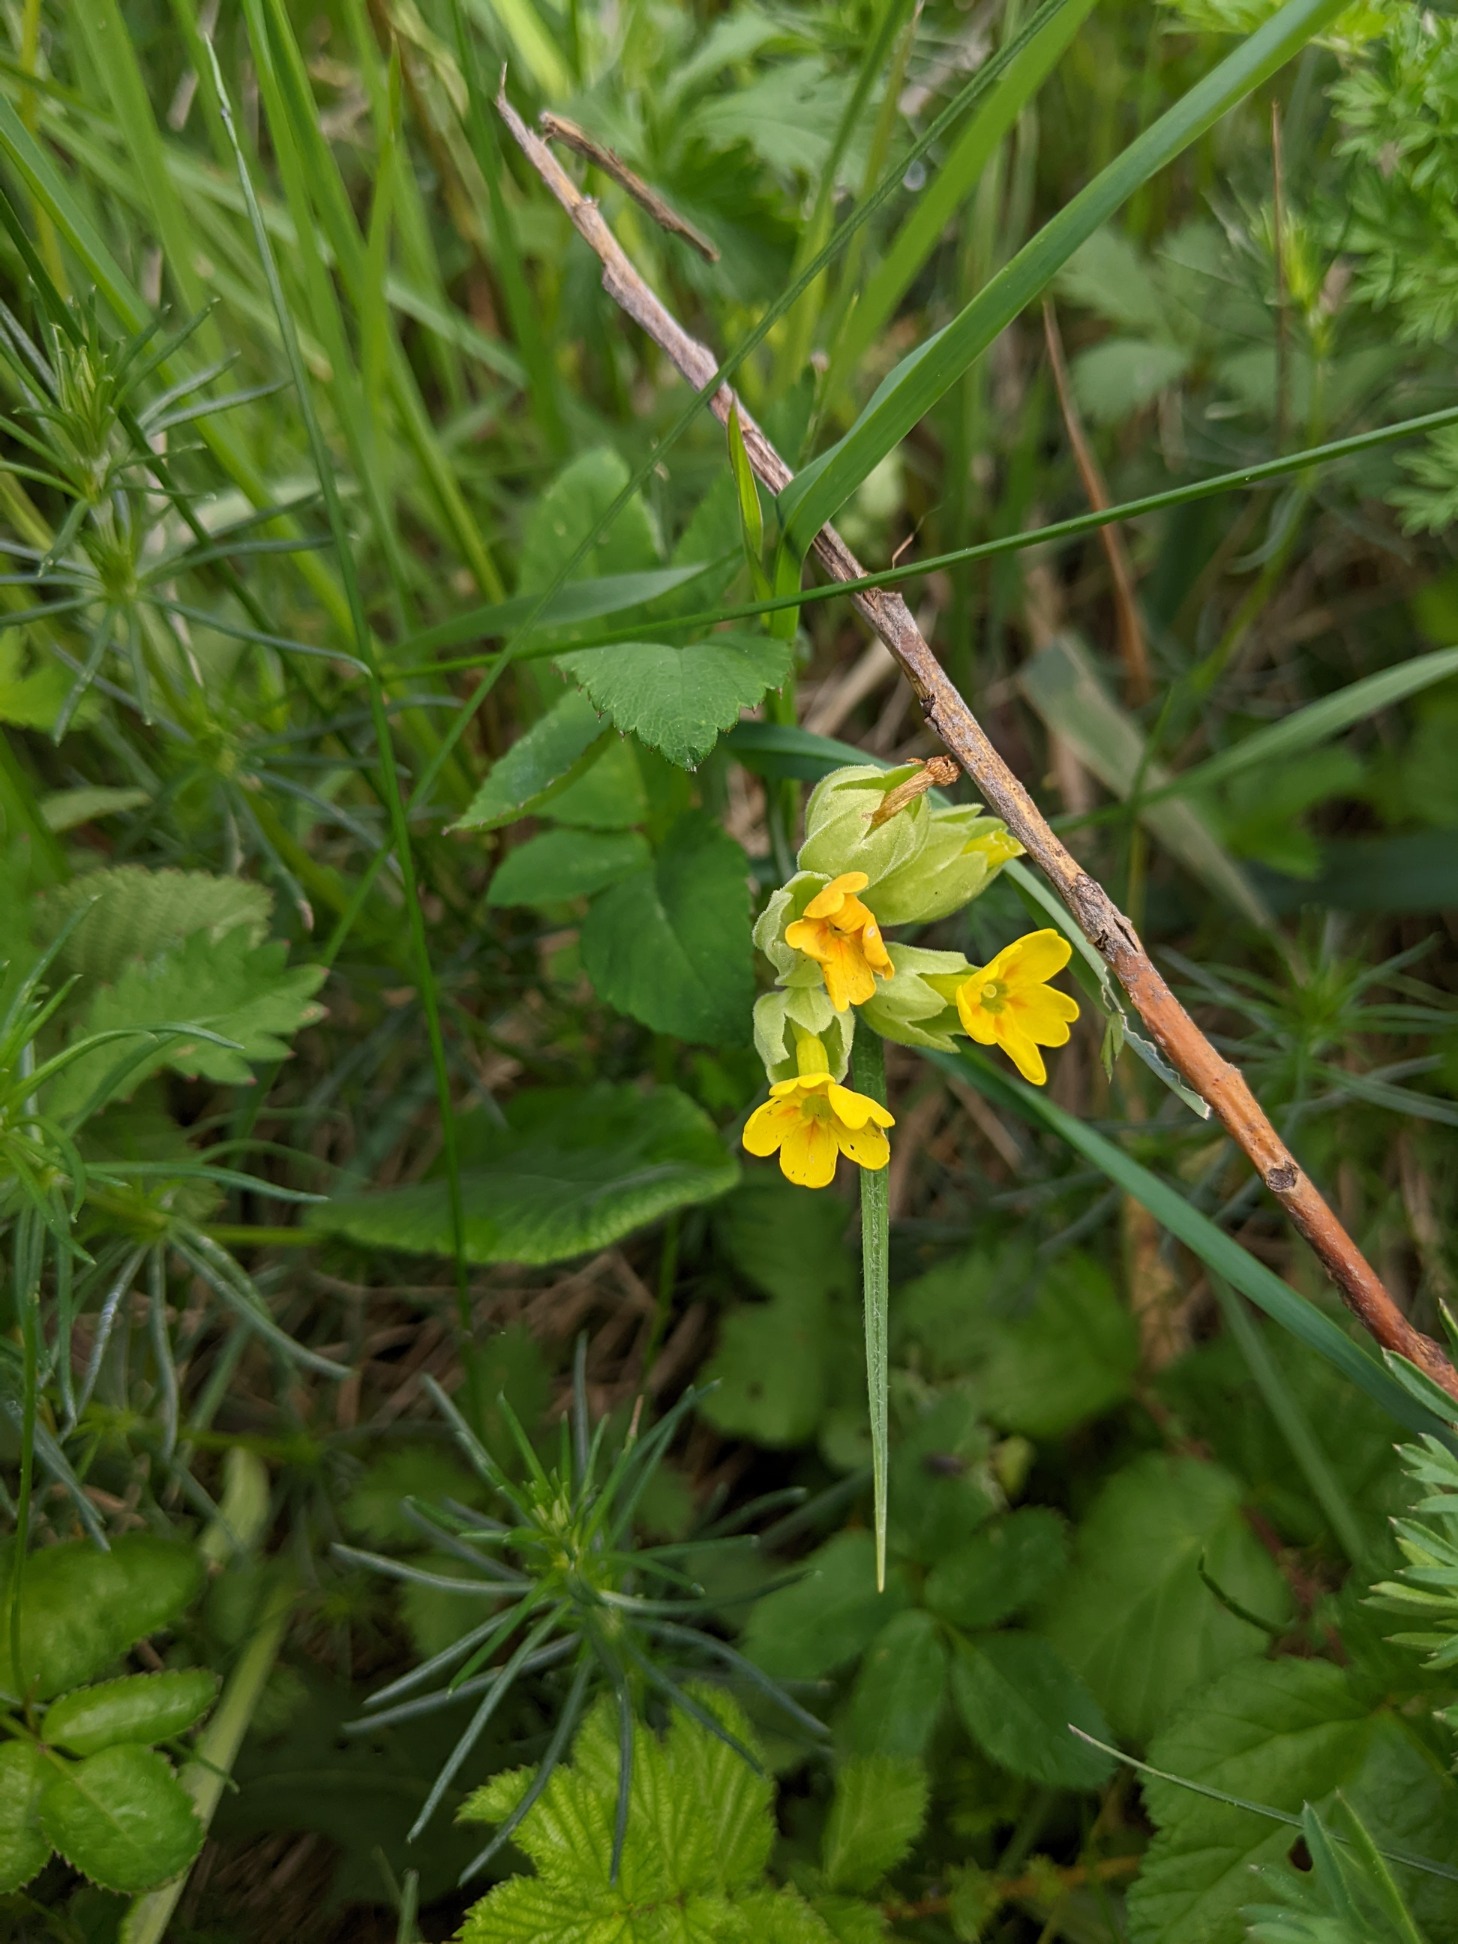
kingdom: Plantae
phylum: Tracheophyta
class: Magnoliopsida
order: Ericales
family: Primulaceae
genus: Primula
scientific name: Primula veris
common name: Hulkravet kodriver
